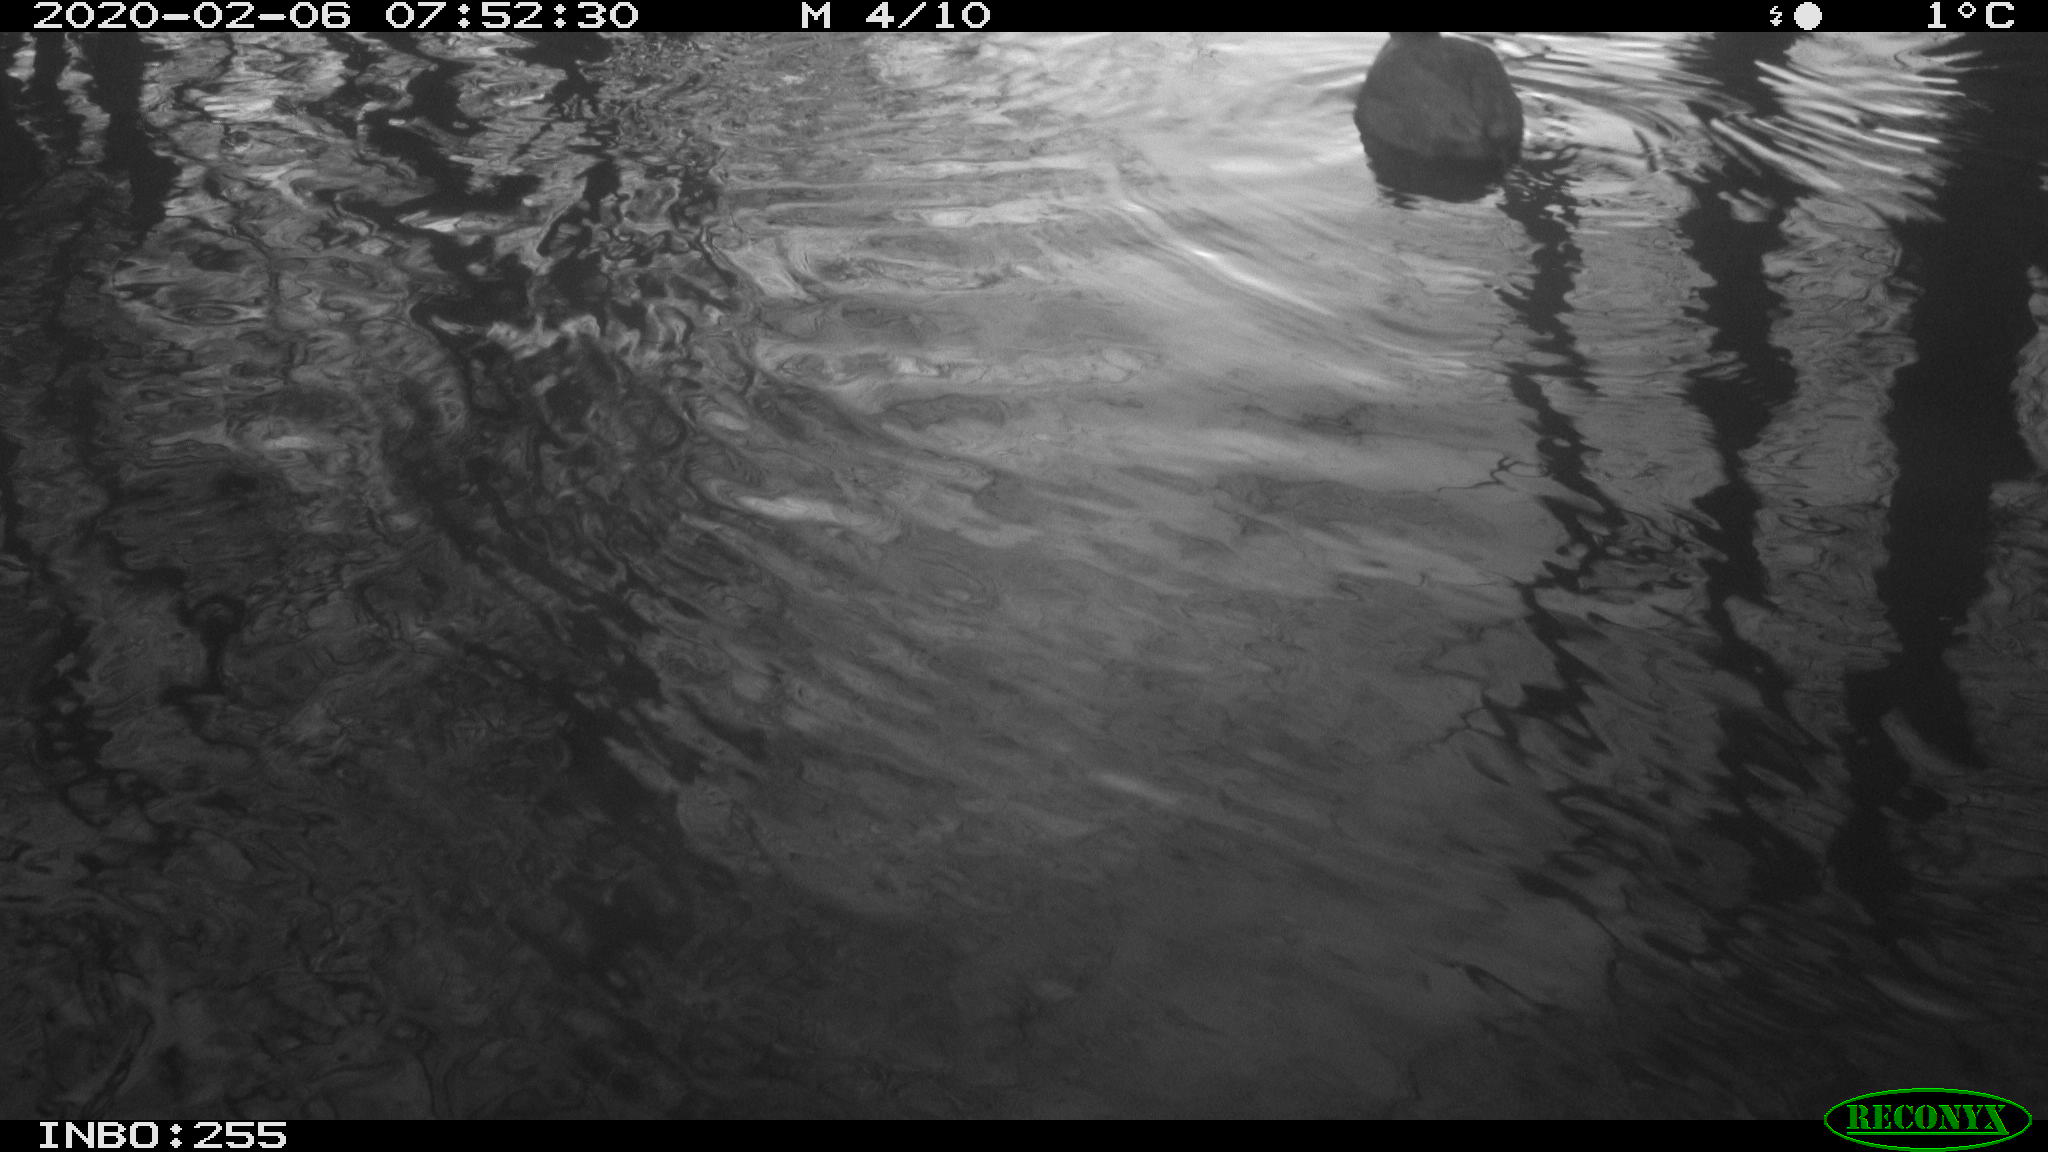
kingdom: Animalia
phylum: Chordata
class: Aves
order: Gruiformes
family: Rallidae
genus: Fulica
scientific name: Fulica atra
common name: Eurasian coot
